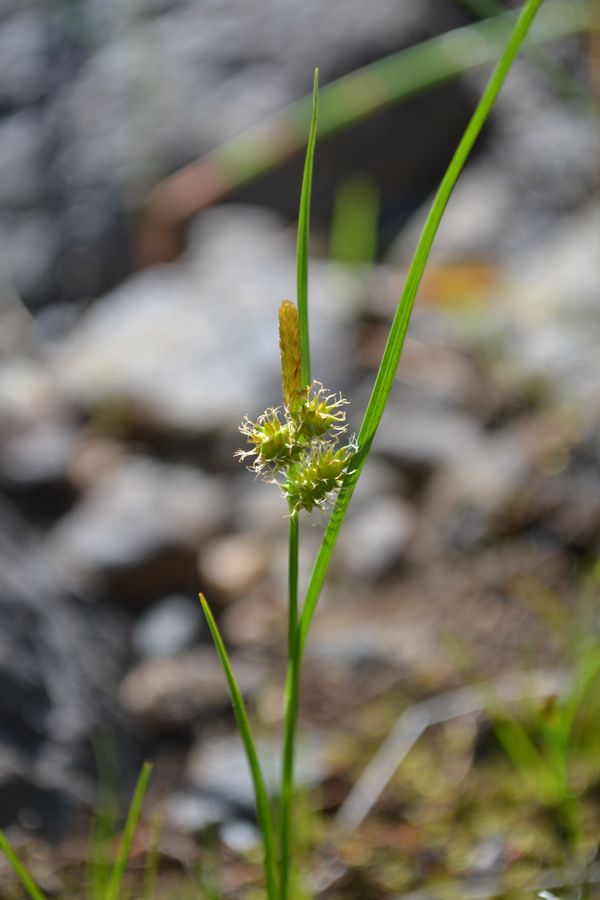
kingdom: Plantae
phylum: Tracheophyta
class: Liliopsida
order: Poales
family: Cyperaceae
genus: Carex
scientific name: Carex oederi
